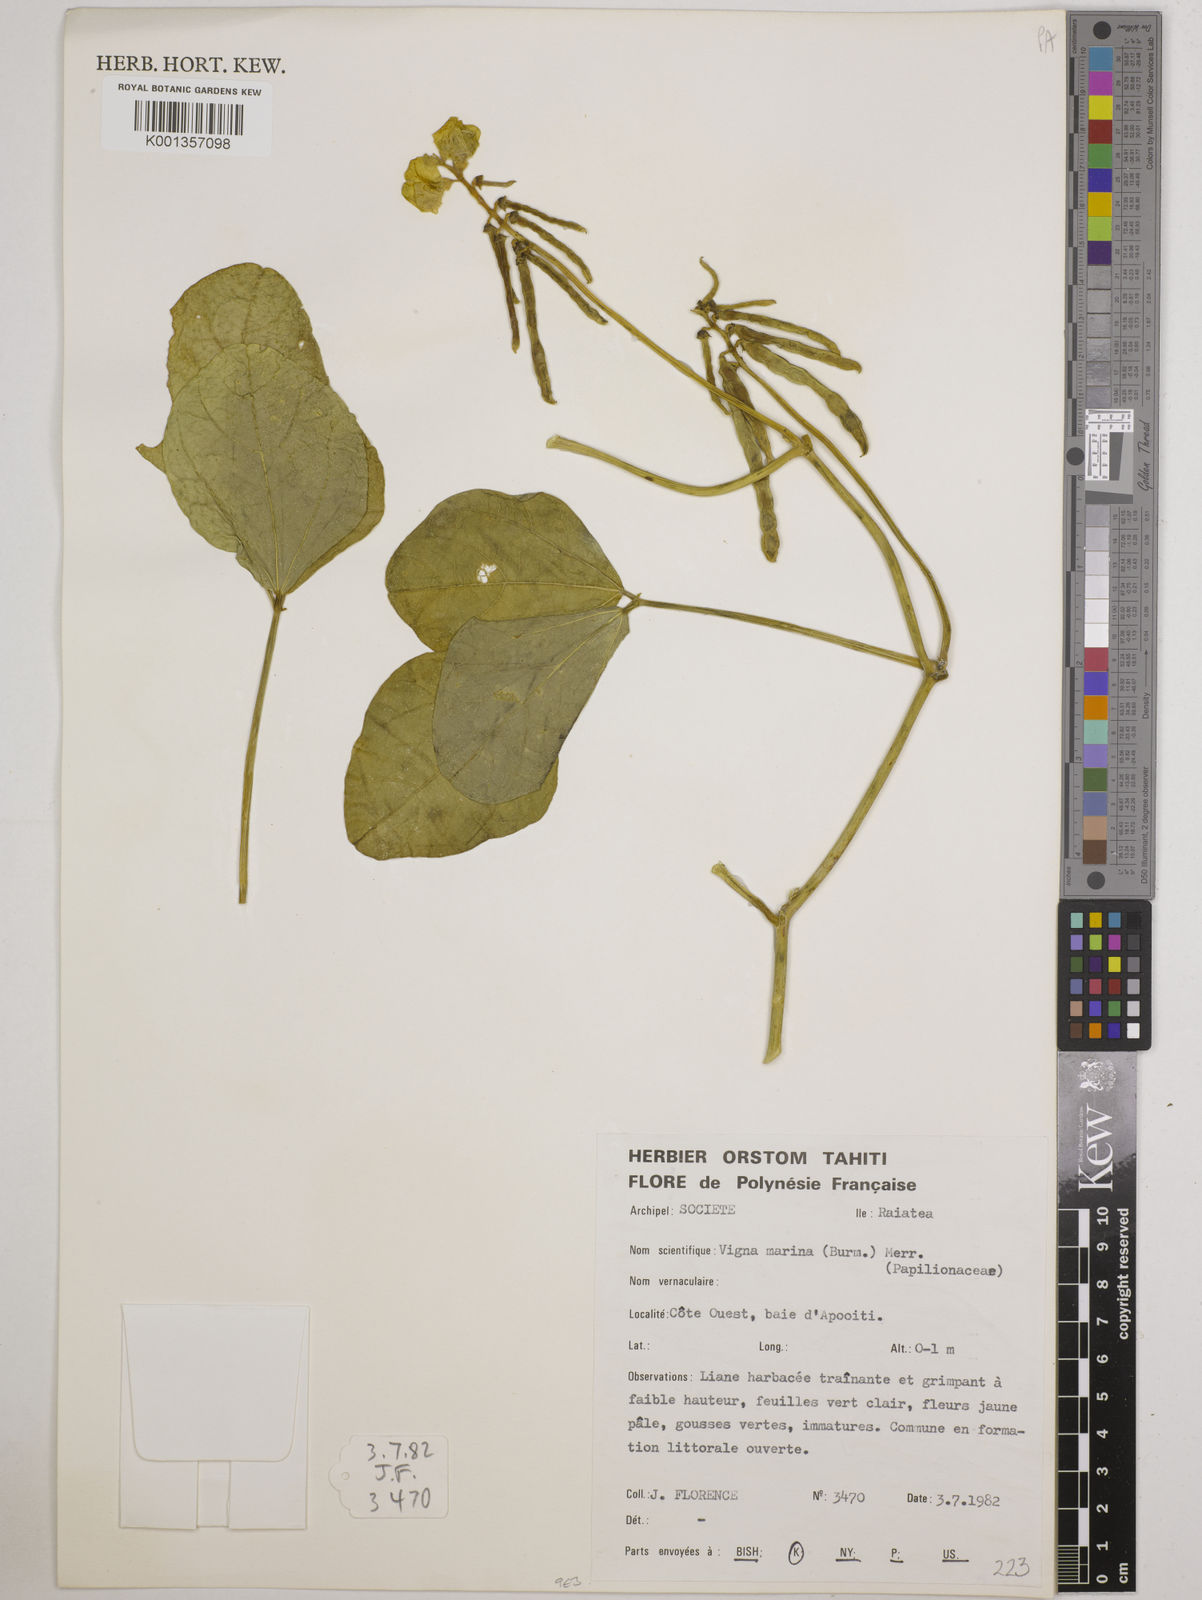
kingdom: Plantae
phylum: Tracheophyta
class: Magnoliopsida
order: Fabales
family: Fabaceae
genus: Vigna
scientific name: Vigna marina
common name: Dune-bean
